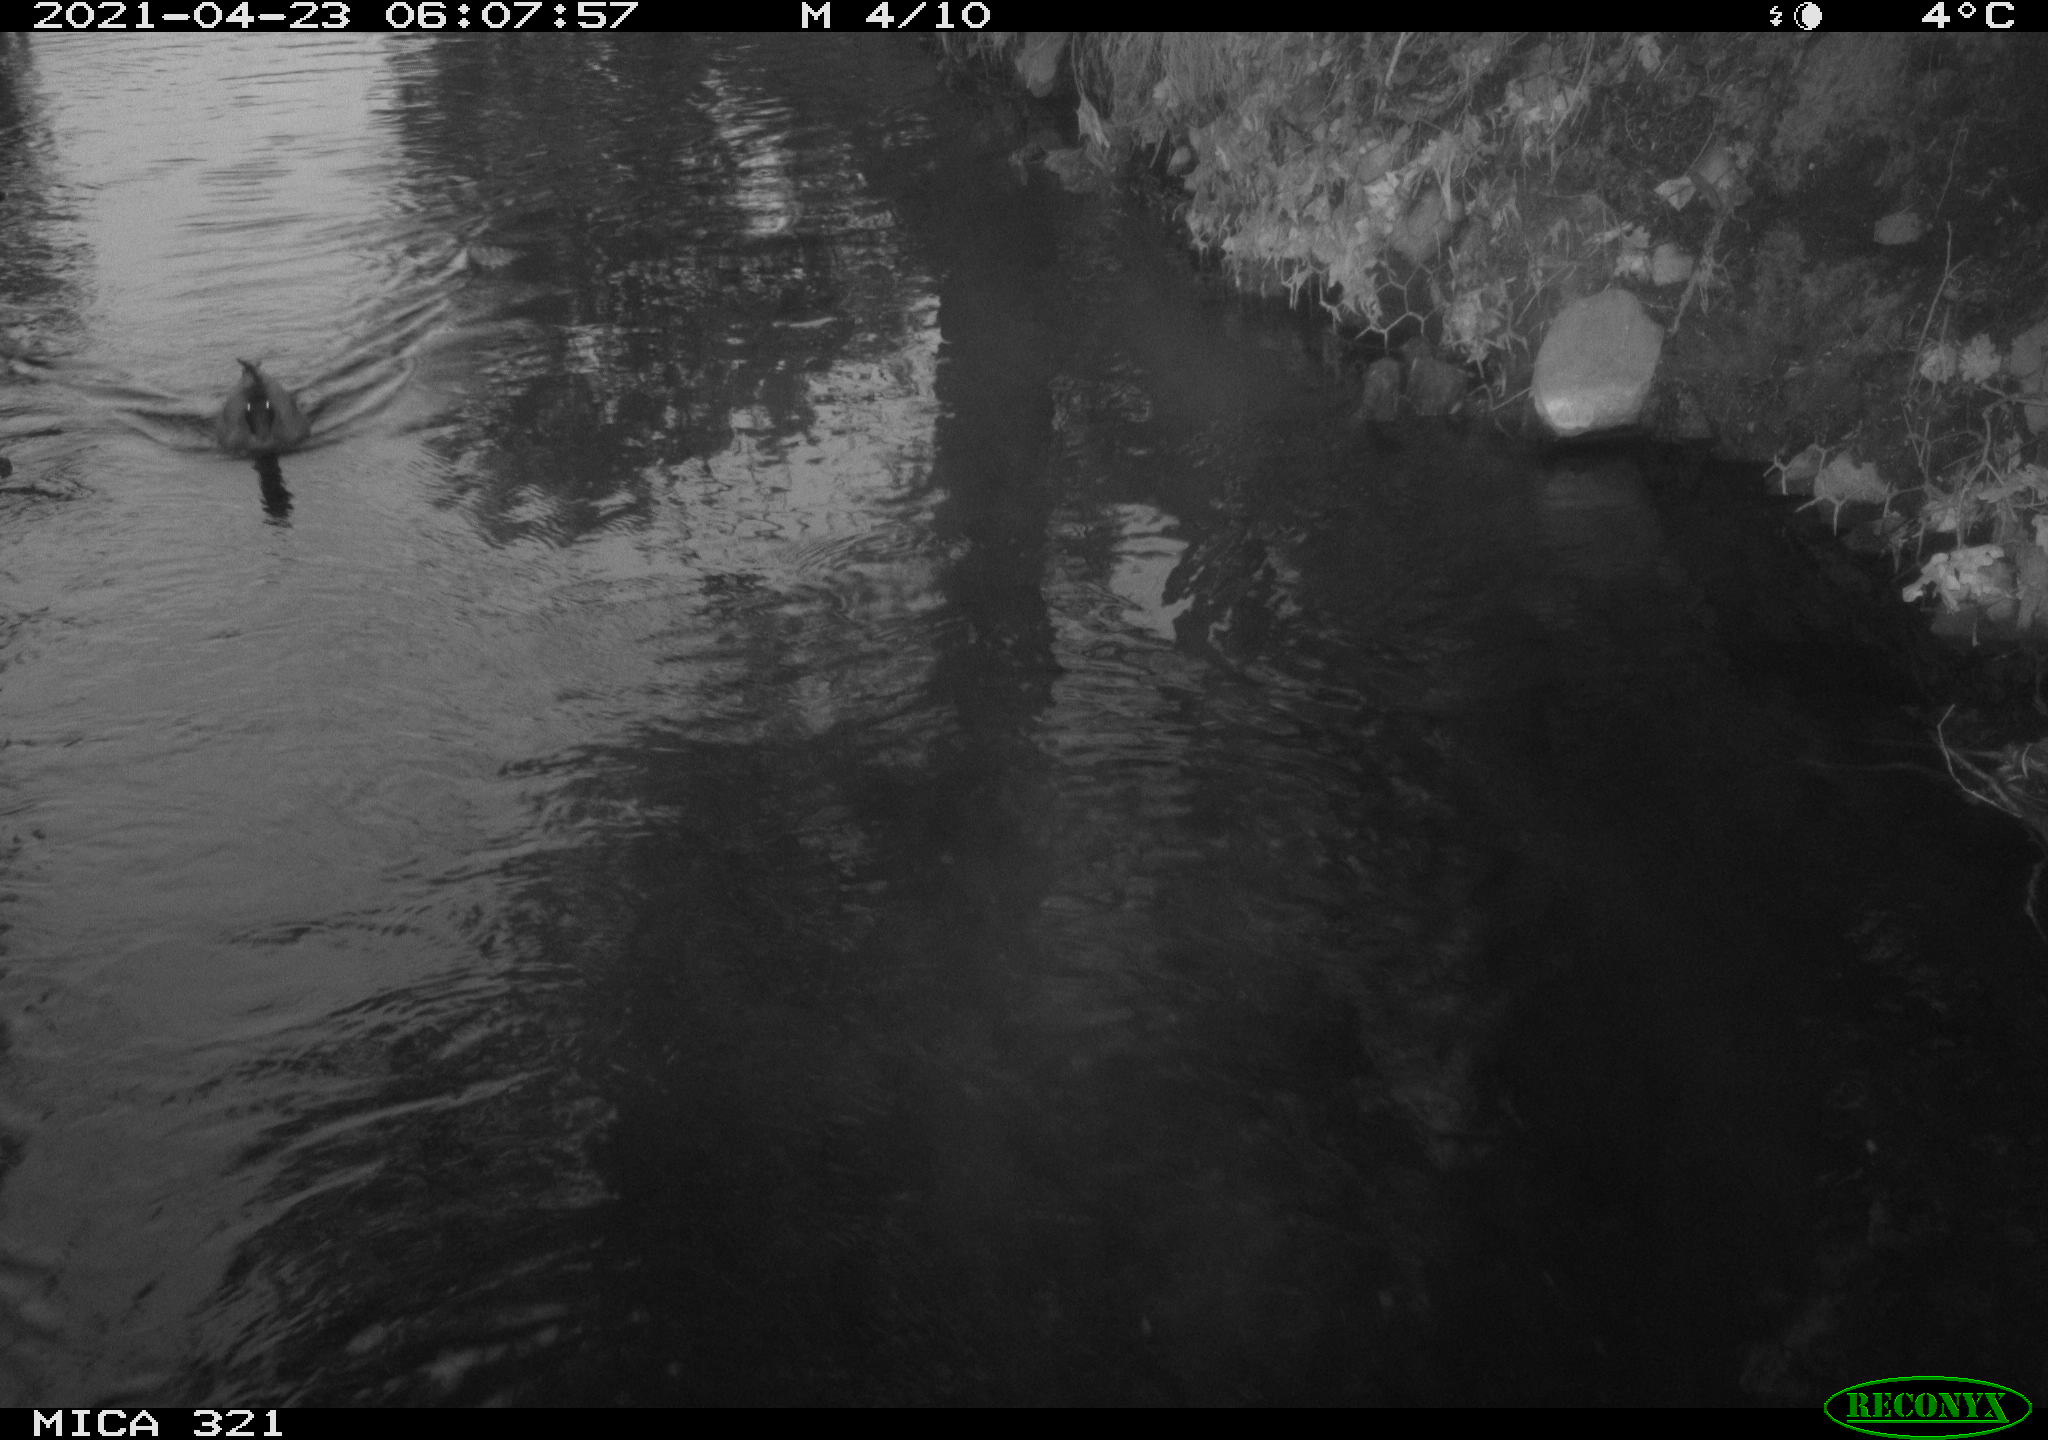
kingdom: Animalia
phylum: Chordata
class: Aves
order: Gruiformes
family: Rallidae
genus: Gallinula
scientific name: Gallinula chloropus
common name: Common moorhen
